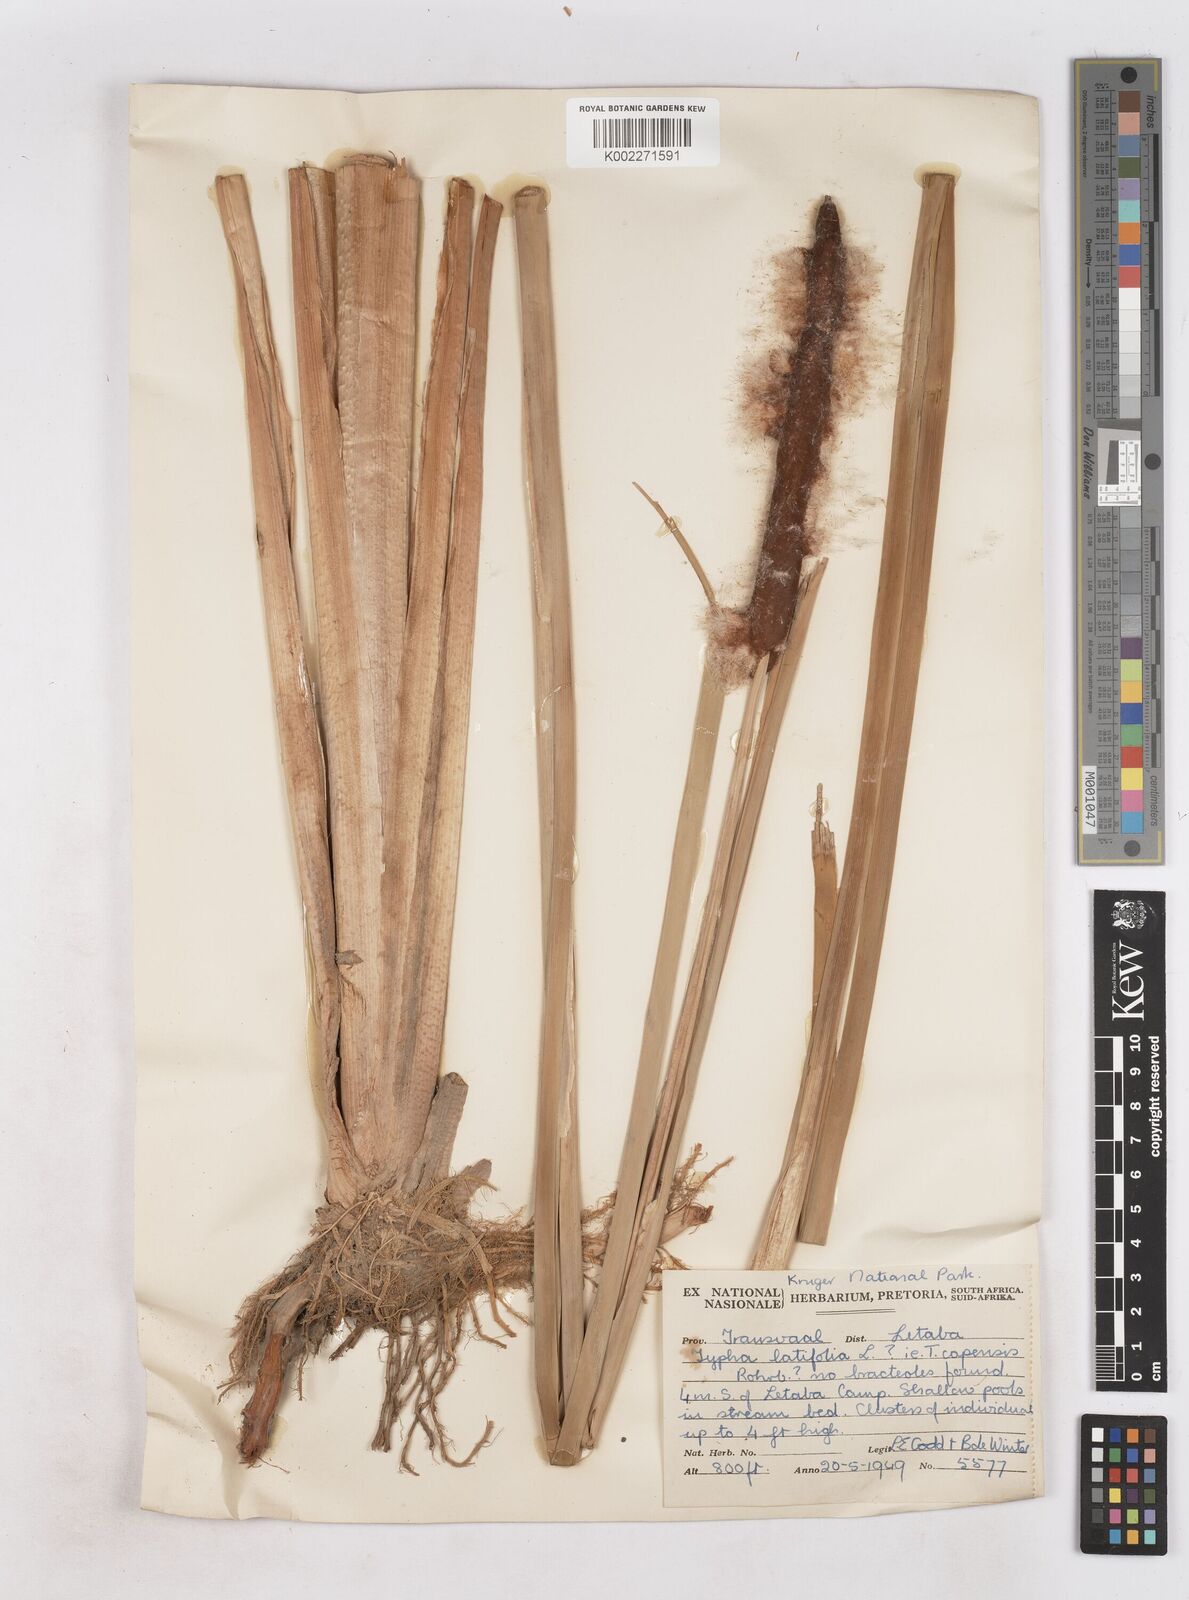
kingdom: Plantae
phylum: Tracheophyta
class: Liliopsida
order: Poales
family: Typhaceae
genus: Typha
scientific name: Typha capensis
